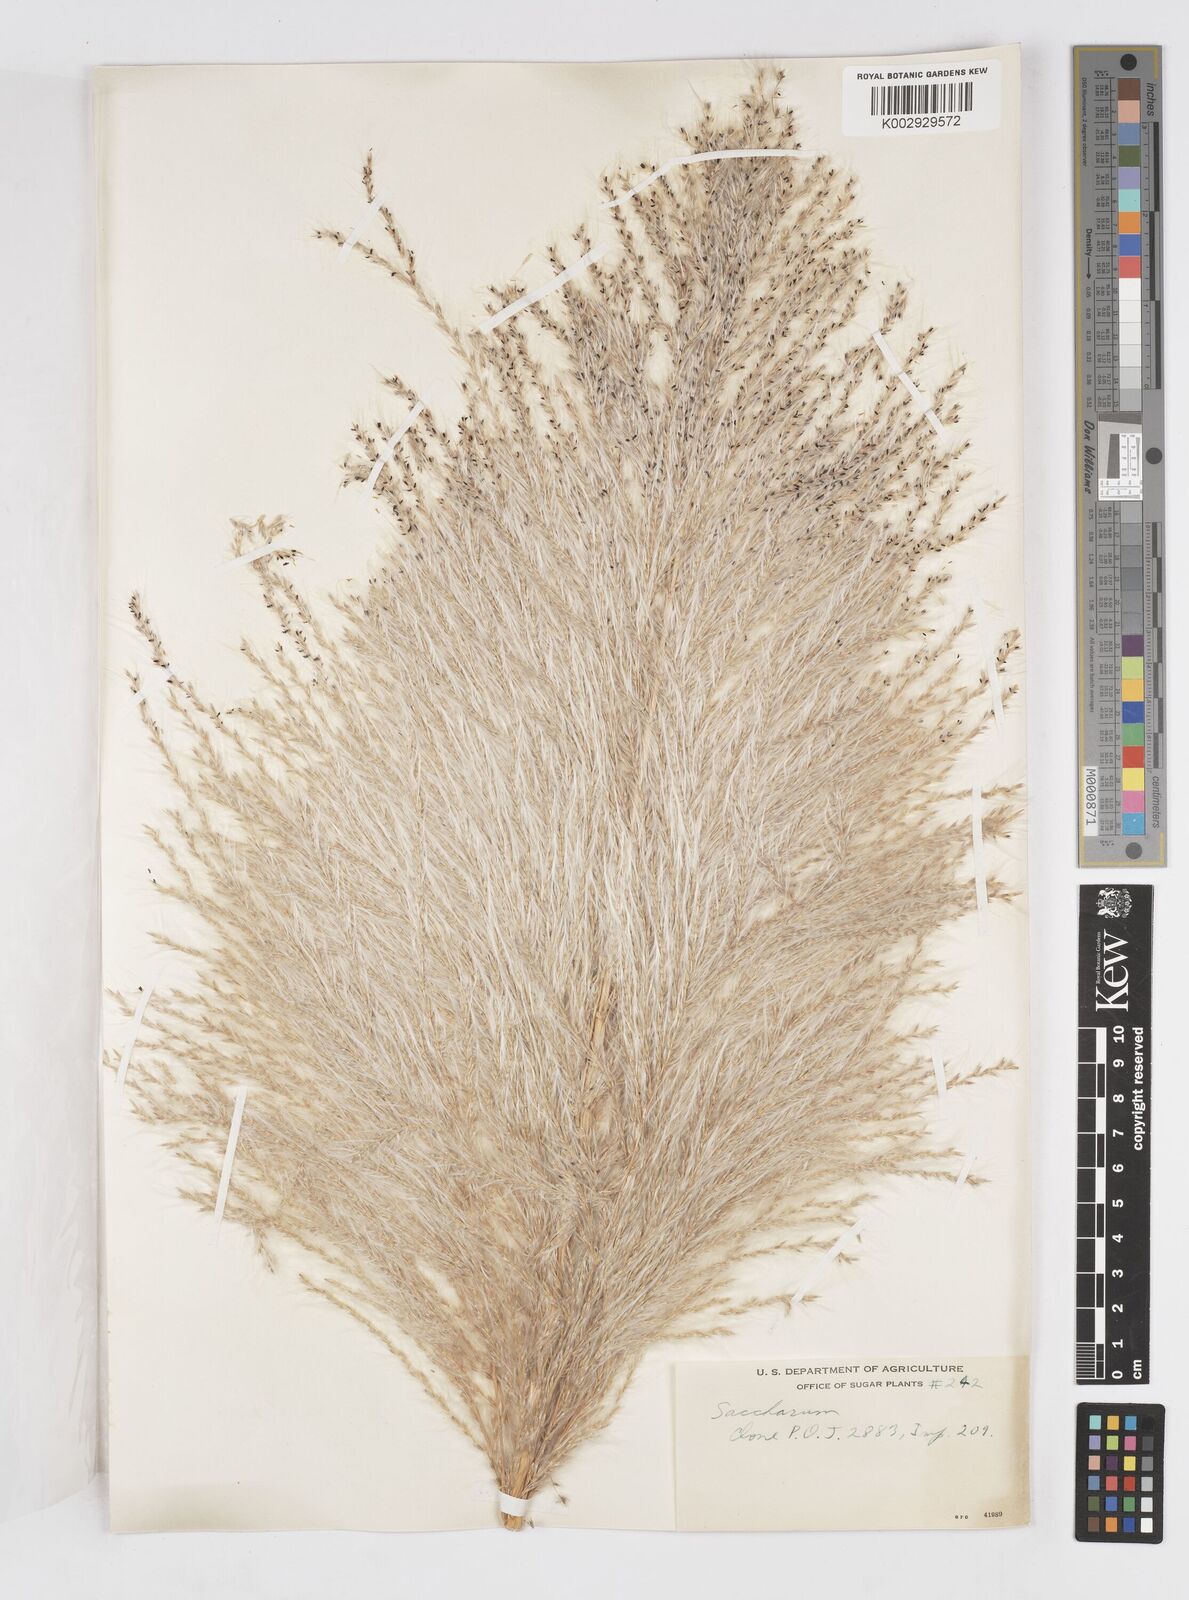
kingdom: Plantae
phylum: Tracheophyta
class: Liliopsida
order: Poales
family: Poaceae
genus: Saccharum
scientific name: Saccharum officinarum
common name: Sugarcane
